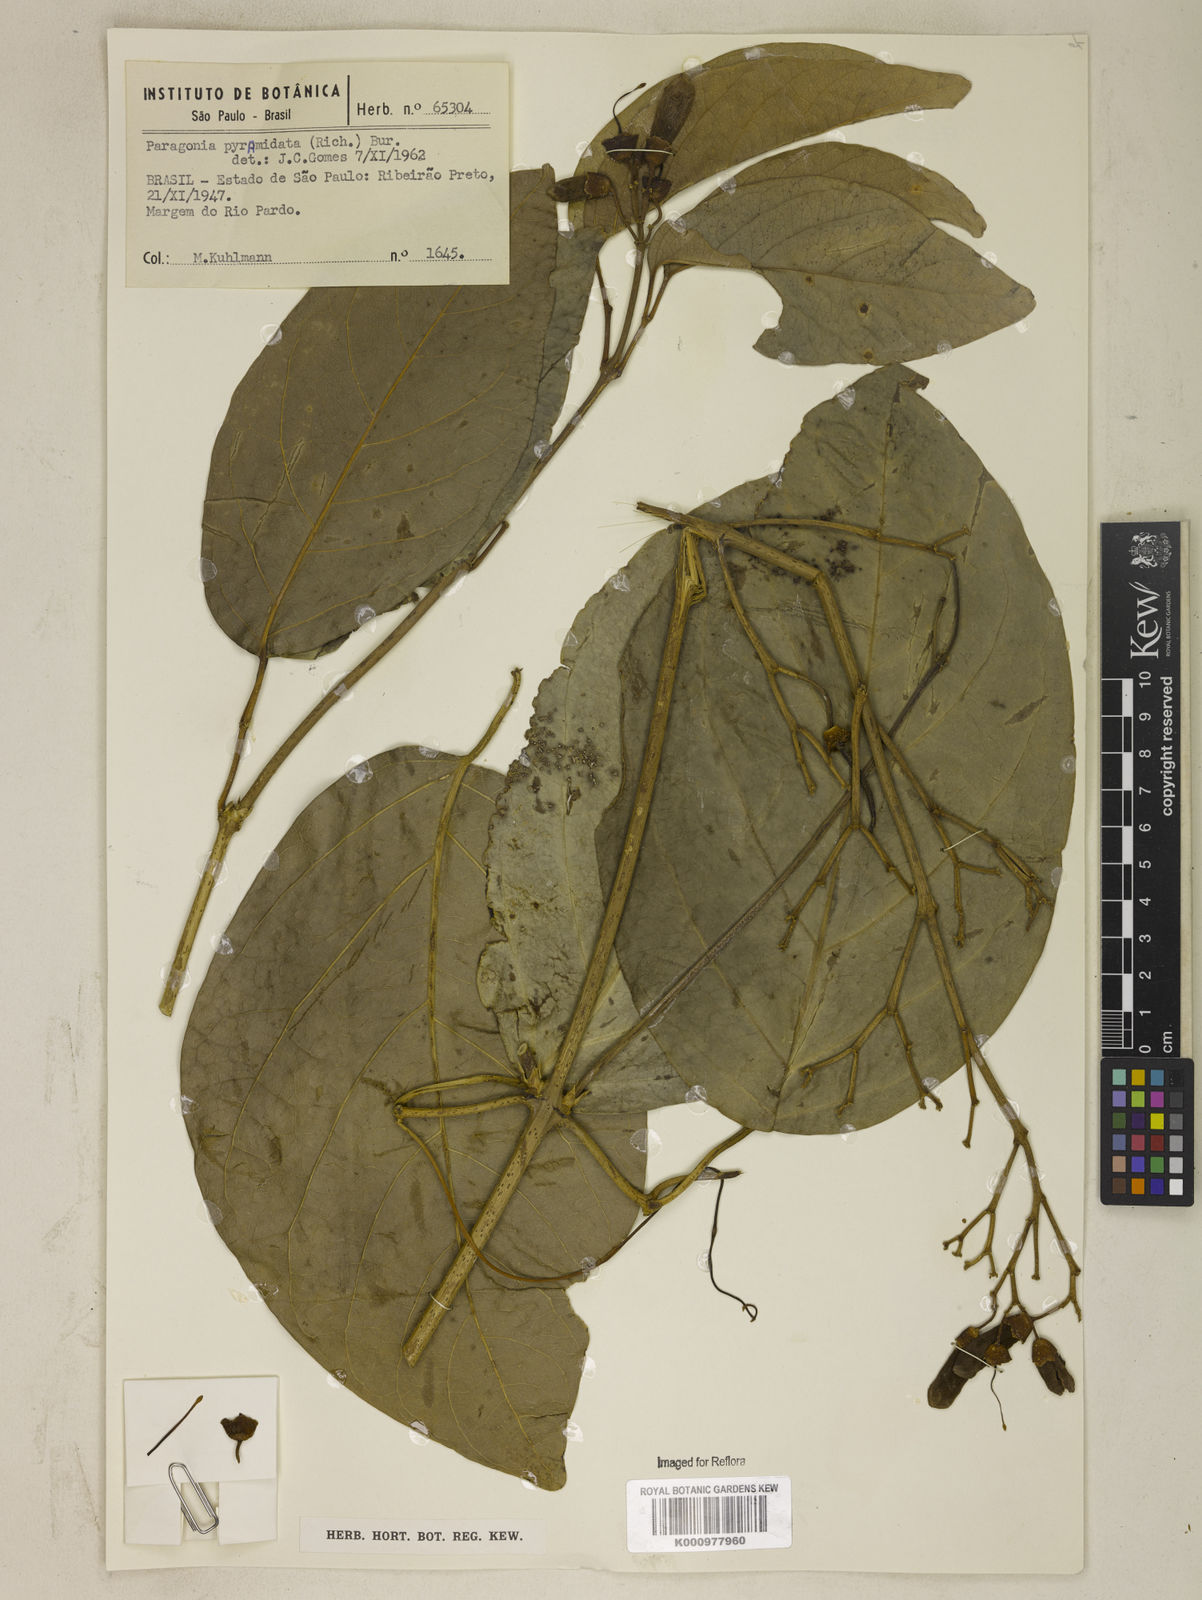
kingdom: Plantae
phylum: Tracheophyta
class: Magnoliopsida
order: Lamiales
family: Bignoniaceae
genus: Tanaecium
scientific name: Tanaecium pyramidatum
